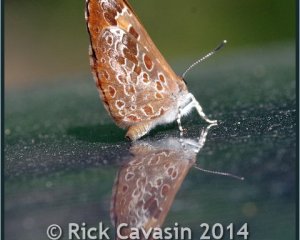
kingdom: Animalia
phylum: Arthropoda
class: Insecta
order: Lepidoptera
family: Lycaenidae
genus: Feniseca
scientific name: Feniseca tarquinius
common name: Harvester
